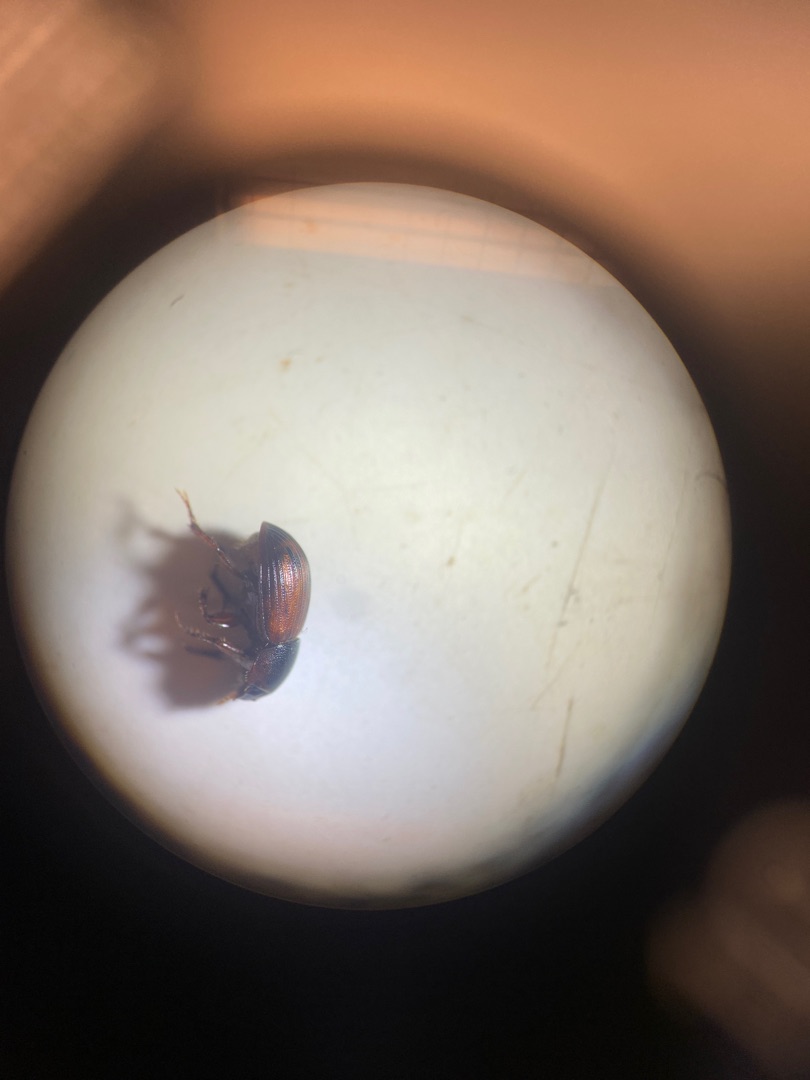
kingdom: Animalia
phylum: Arthropoda
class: Insecta
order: Coleoptera
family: Scarabaeidae
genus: Limarus
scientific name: Limarus zenkeri
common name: Skyggemøgbille
